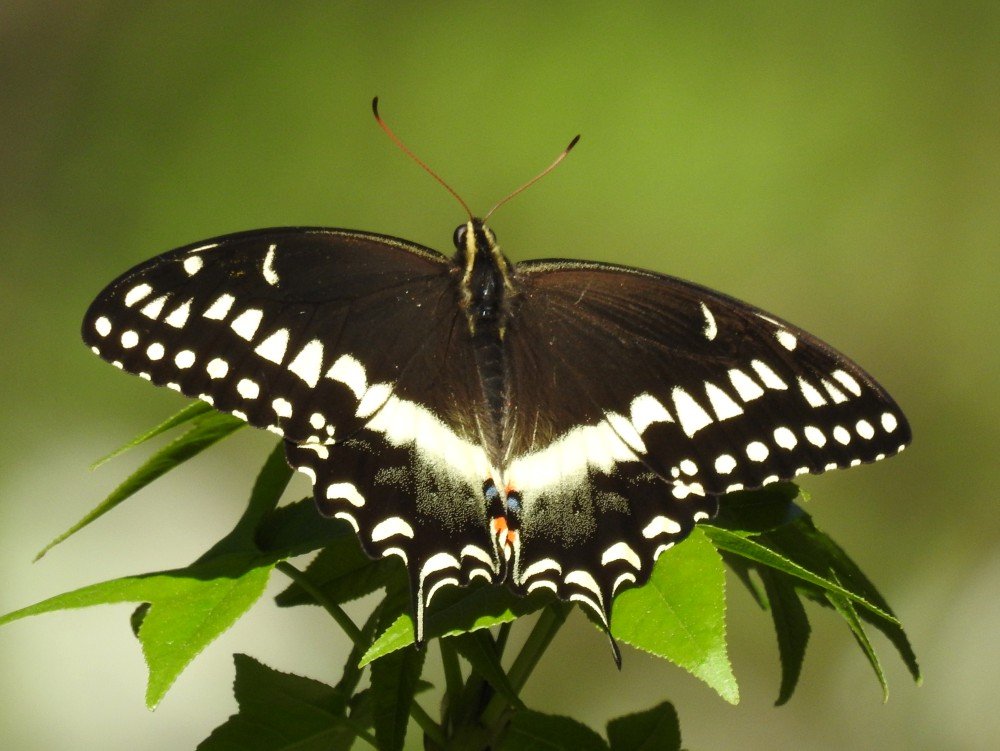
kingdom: Animalia
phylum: Arthropoda
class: Insecta
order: Lepidoptera
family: Papilionidae
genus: Pterourus
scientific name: Pterourus palamedes
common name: Palamedes Swallowtail
